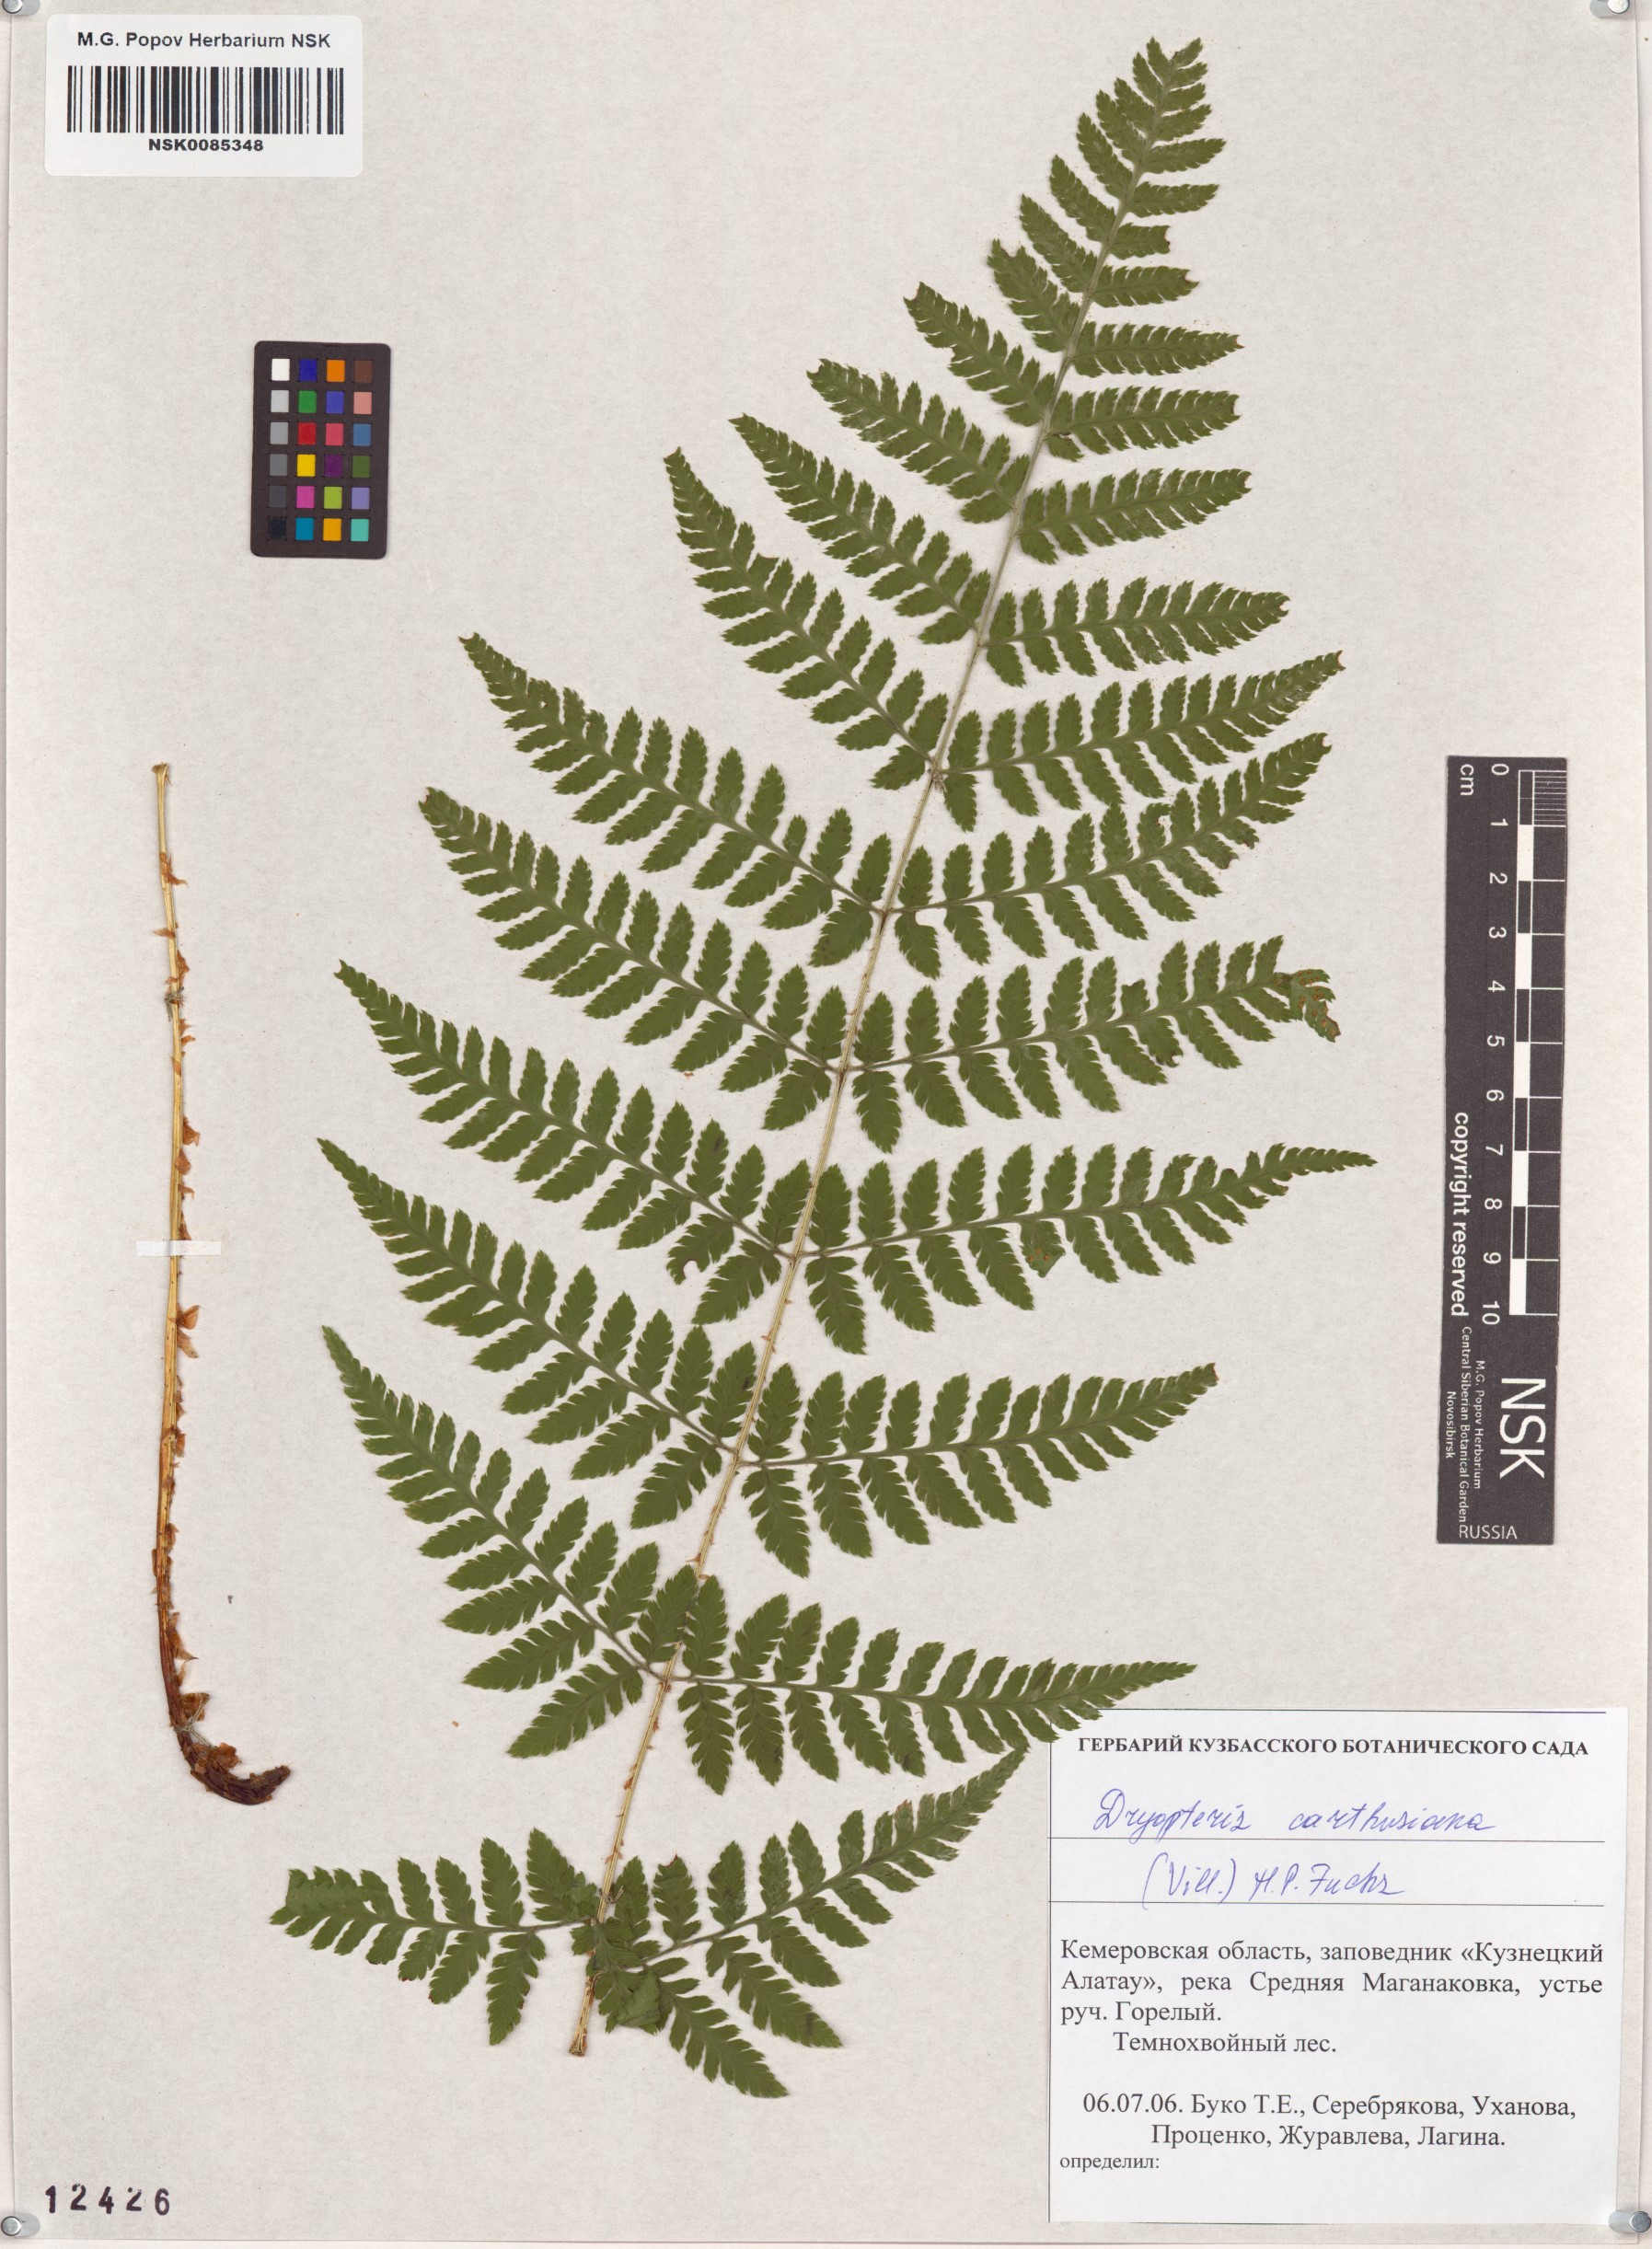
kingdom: Plantae
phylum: Tracheophyta
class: Polypodiopsida
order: Polypodiales
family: Dryopteridaceae
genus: Dryopteris
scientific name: Dryopteris carthusiana
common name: Narrow buckler-fern
